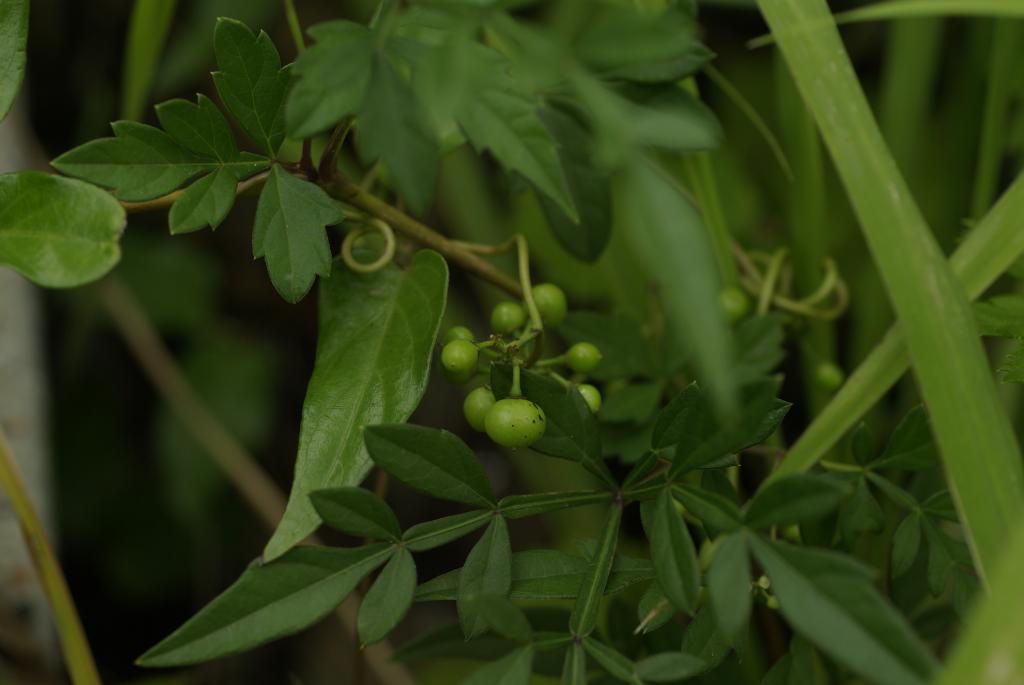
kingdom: Plantae
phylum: Tracheophyta
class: Magnoliopsida
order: Vitales
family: Vitaceae
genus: Ampelopsis
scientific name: Ampelopsis japonica
